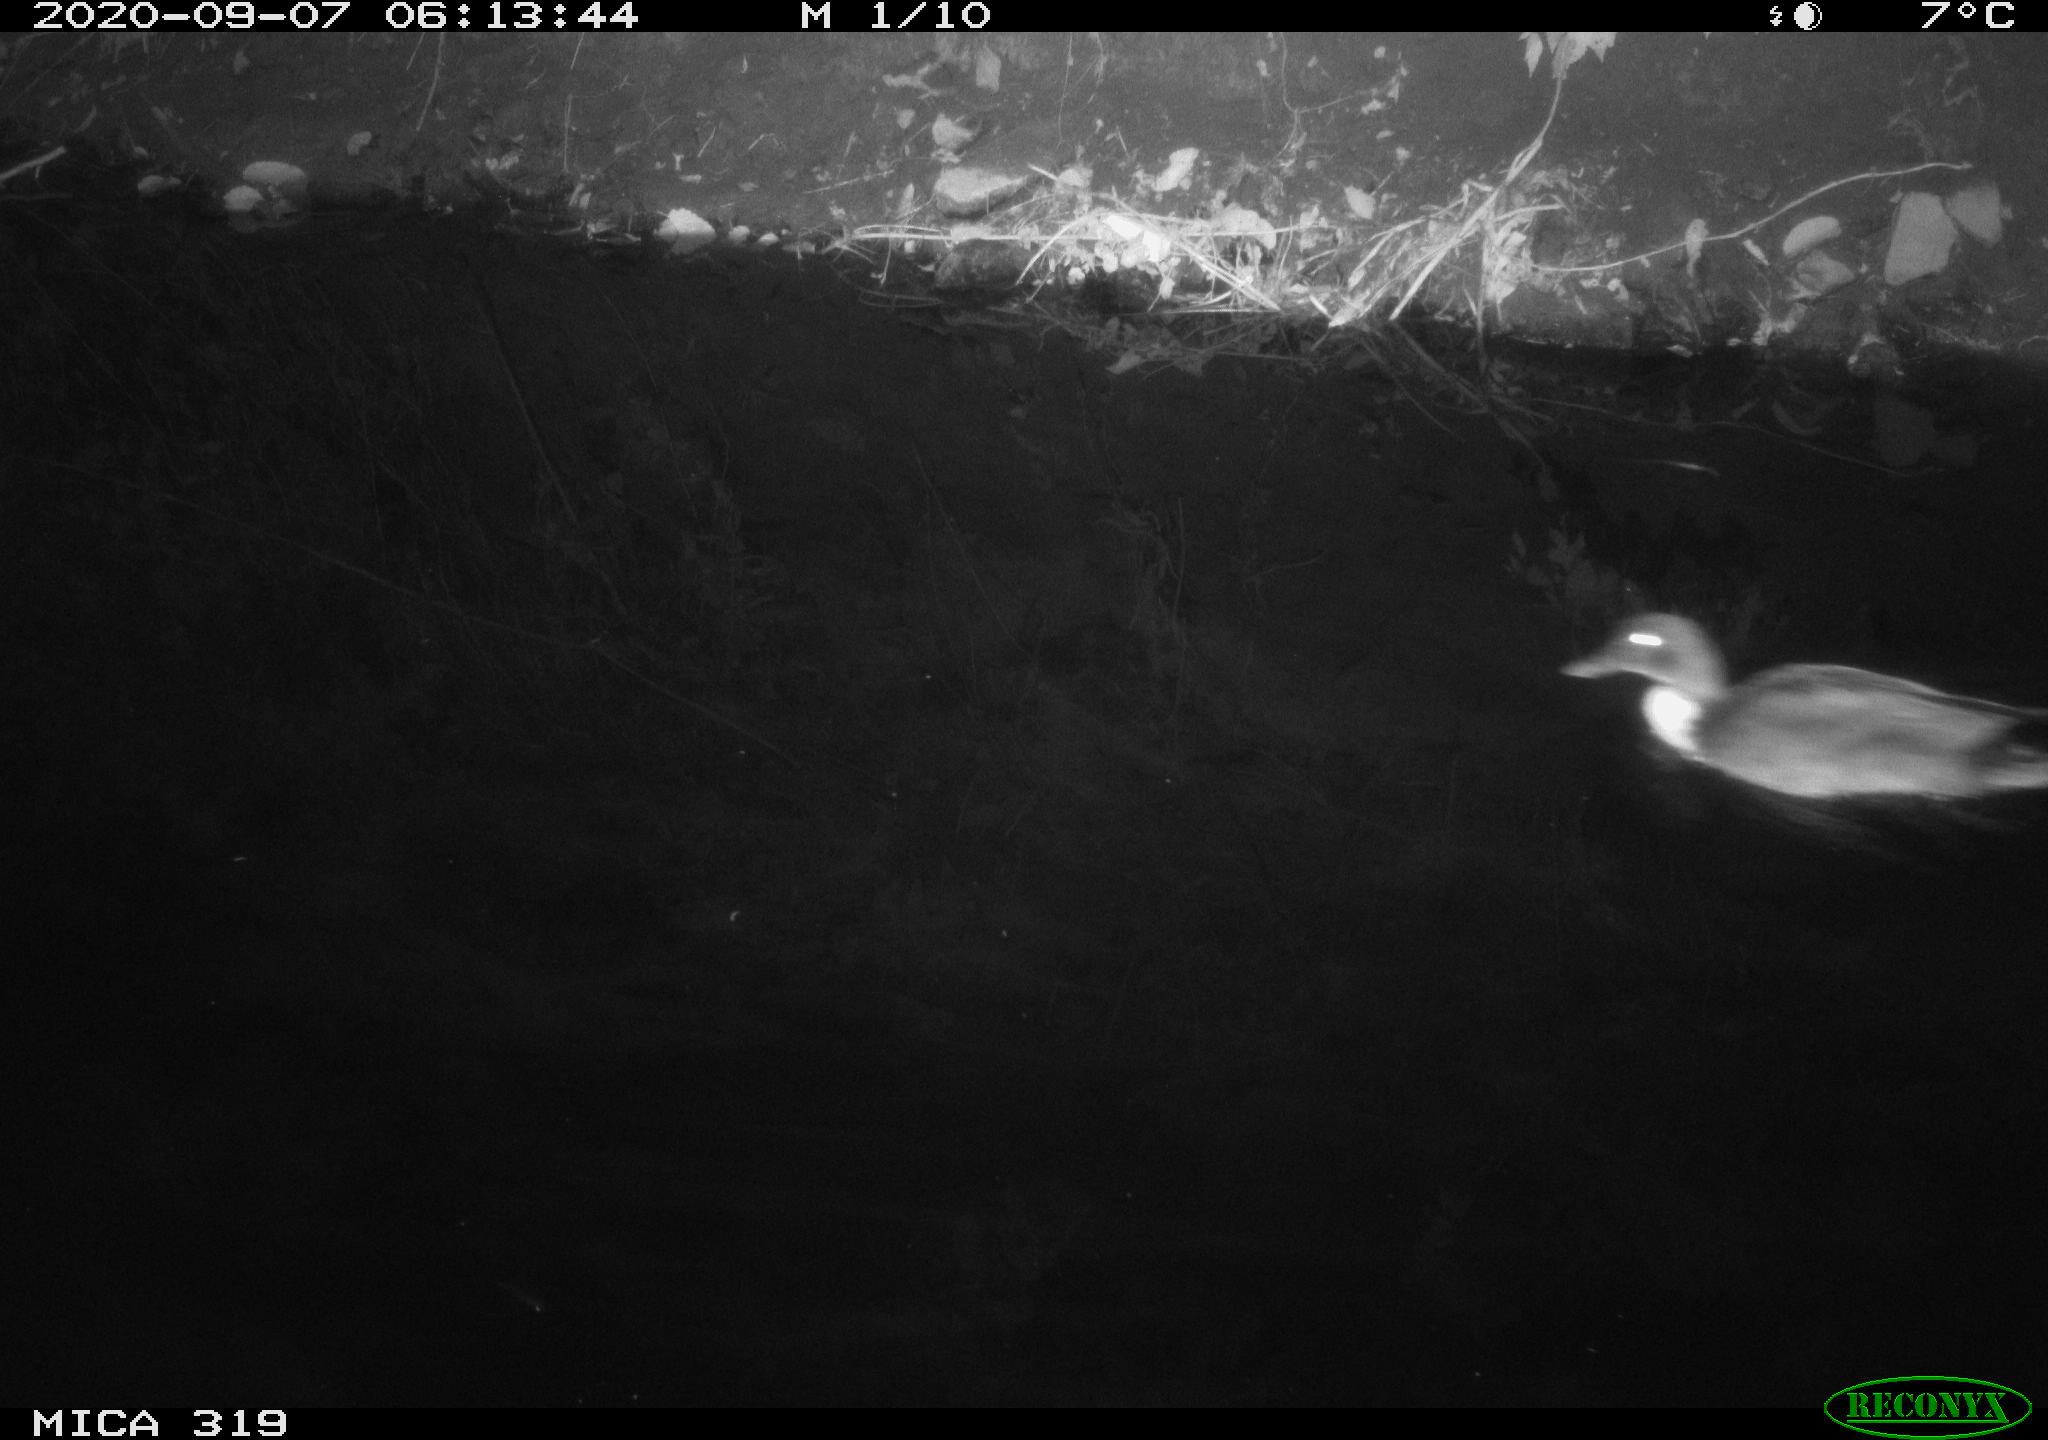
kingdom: Animalia
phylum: Chordata
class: Aves
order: Anseriformes
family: Anatidae
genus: Anas
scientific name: Anas platyrhynchos
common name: Mallard
